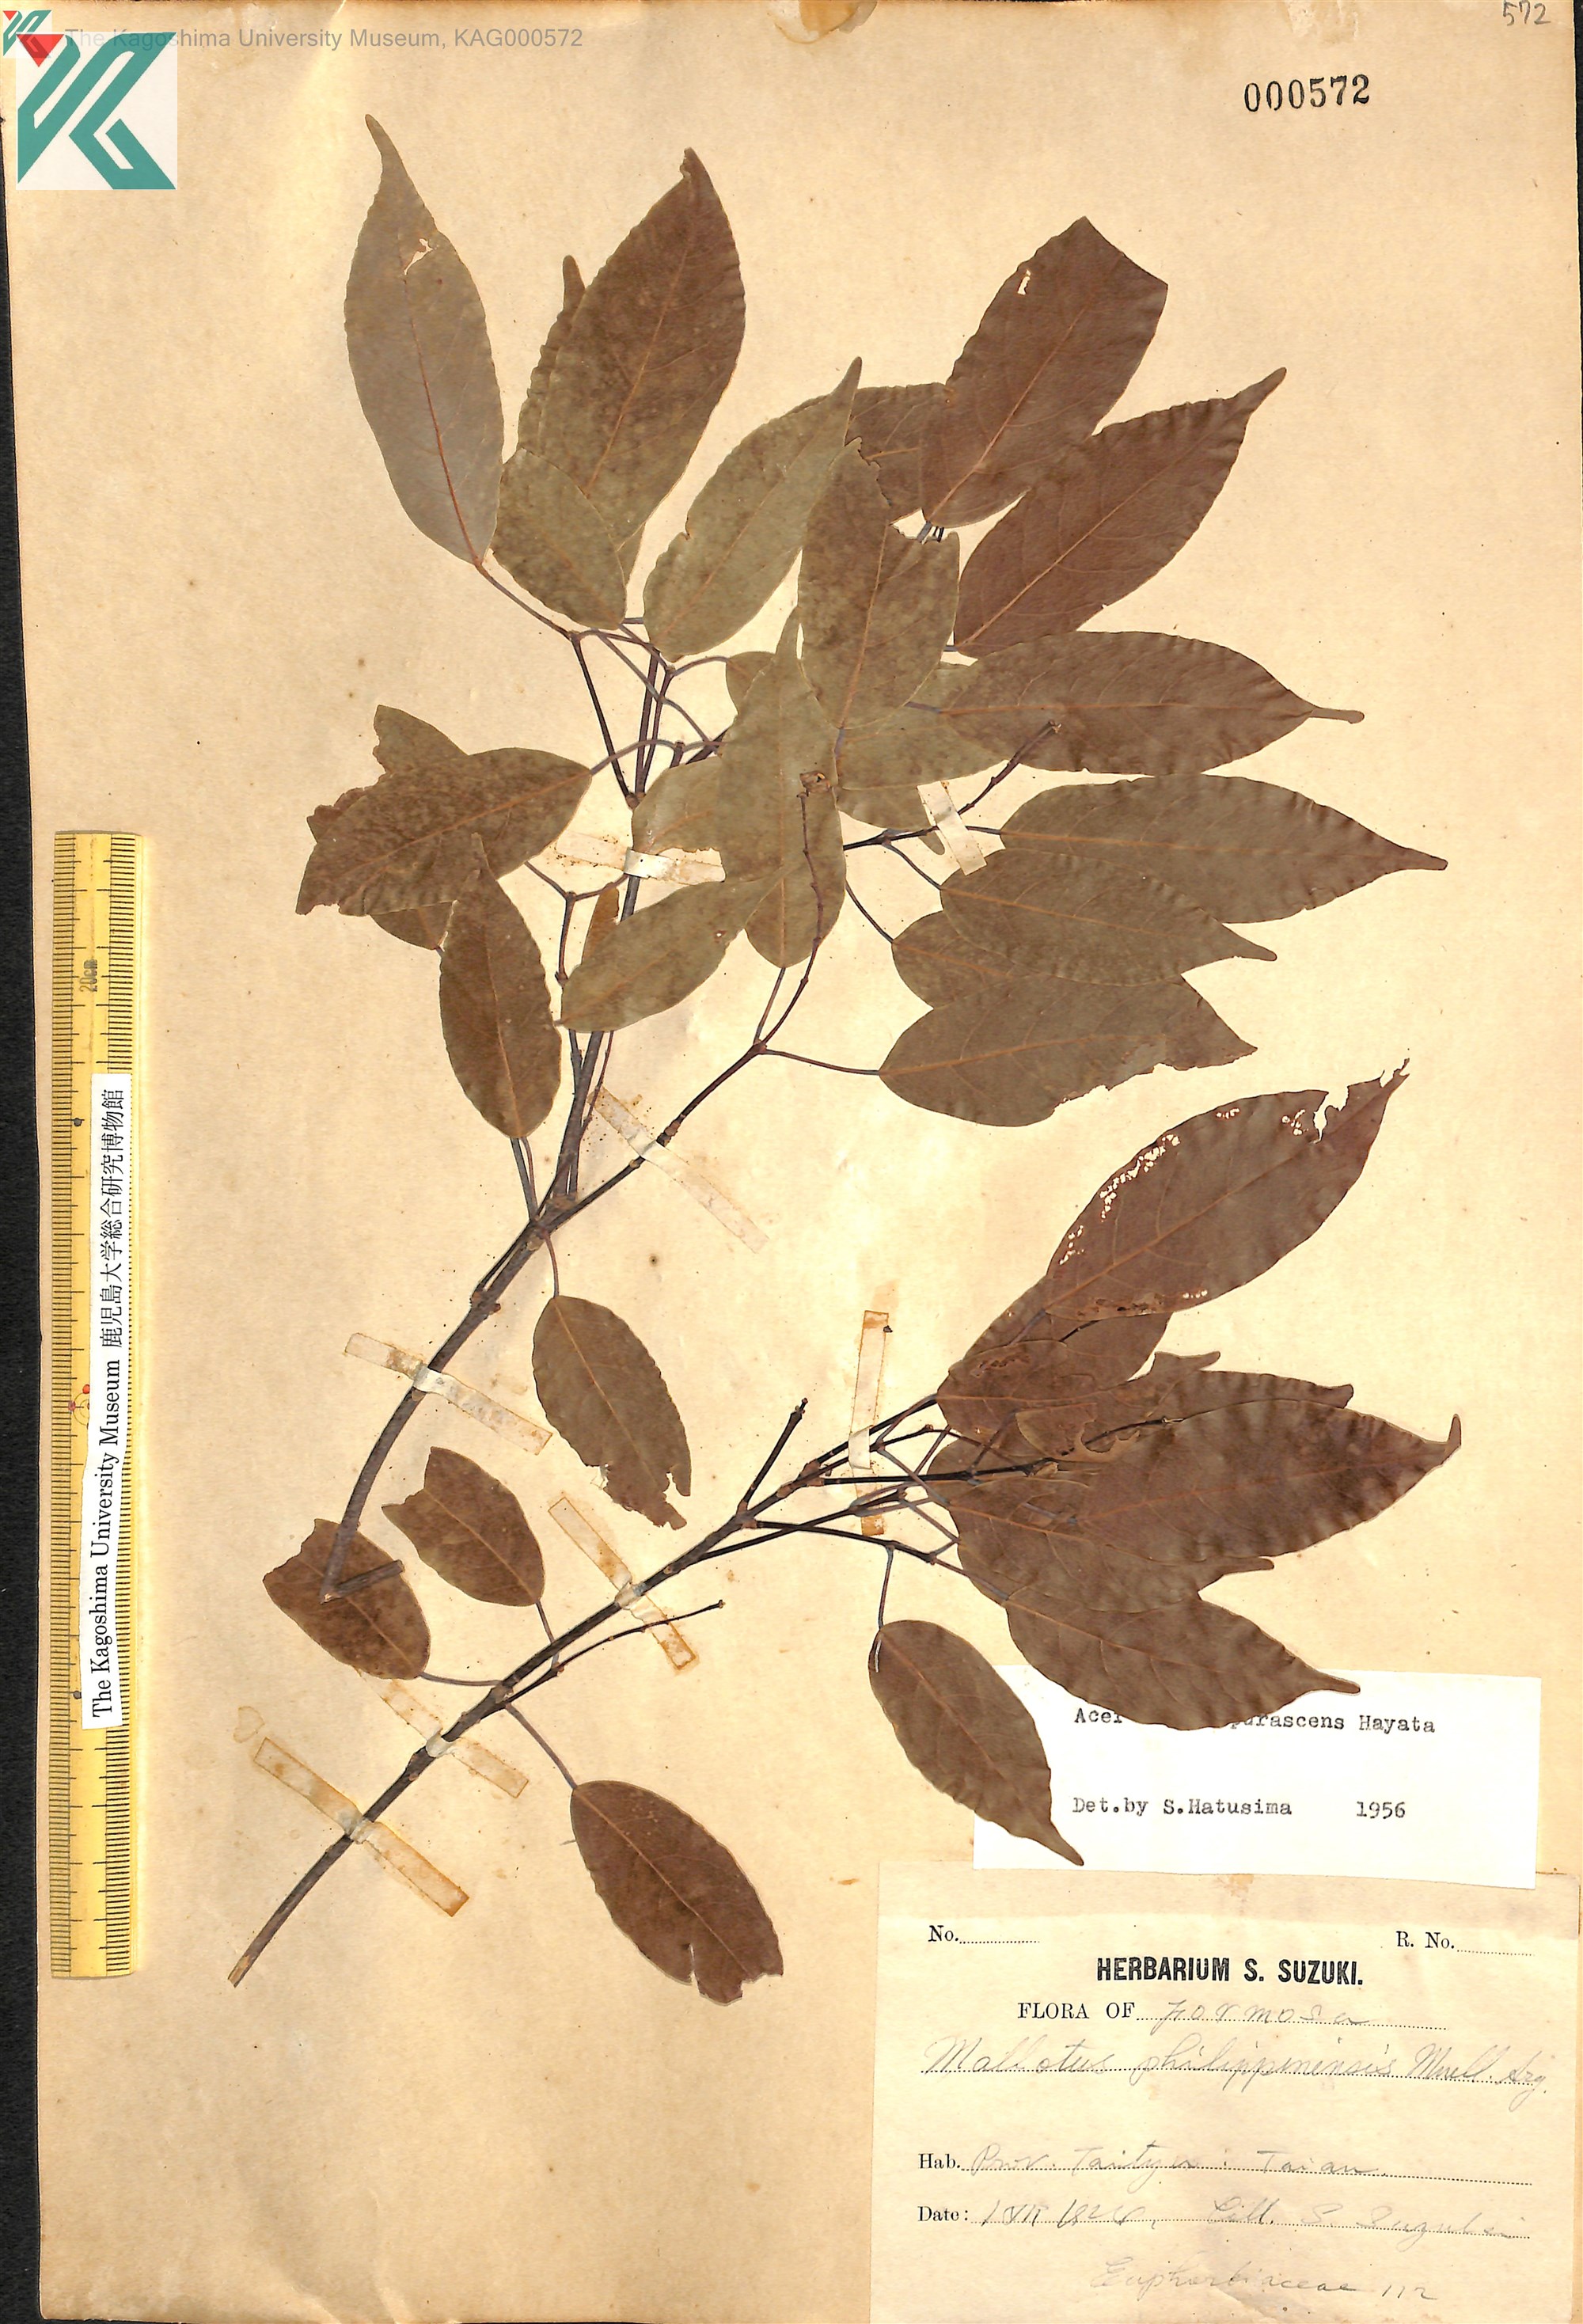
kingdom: Plantae
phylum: Tracheophyta
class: Magnoliopsida
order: Sapindales
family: Sapindaceae
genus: Acer
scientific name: Acer oblongum
